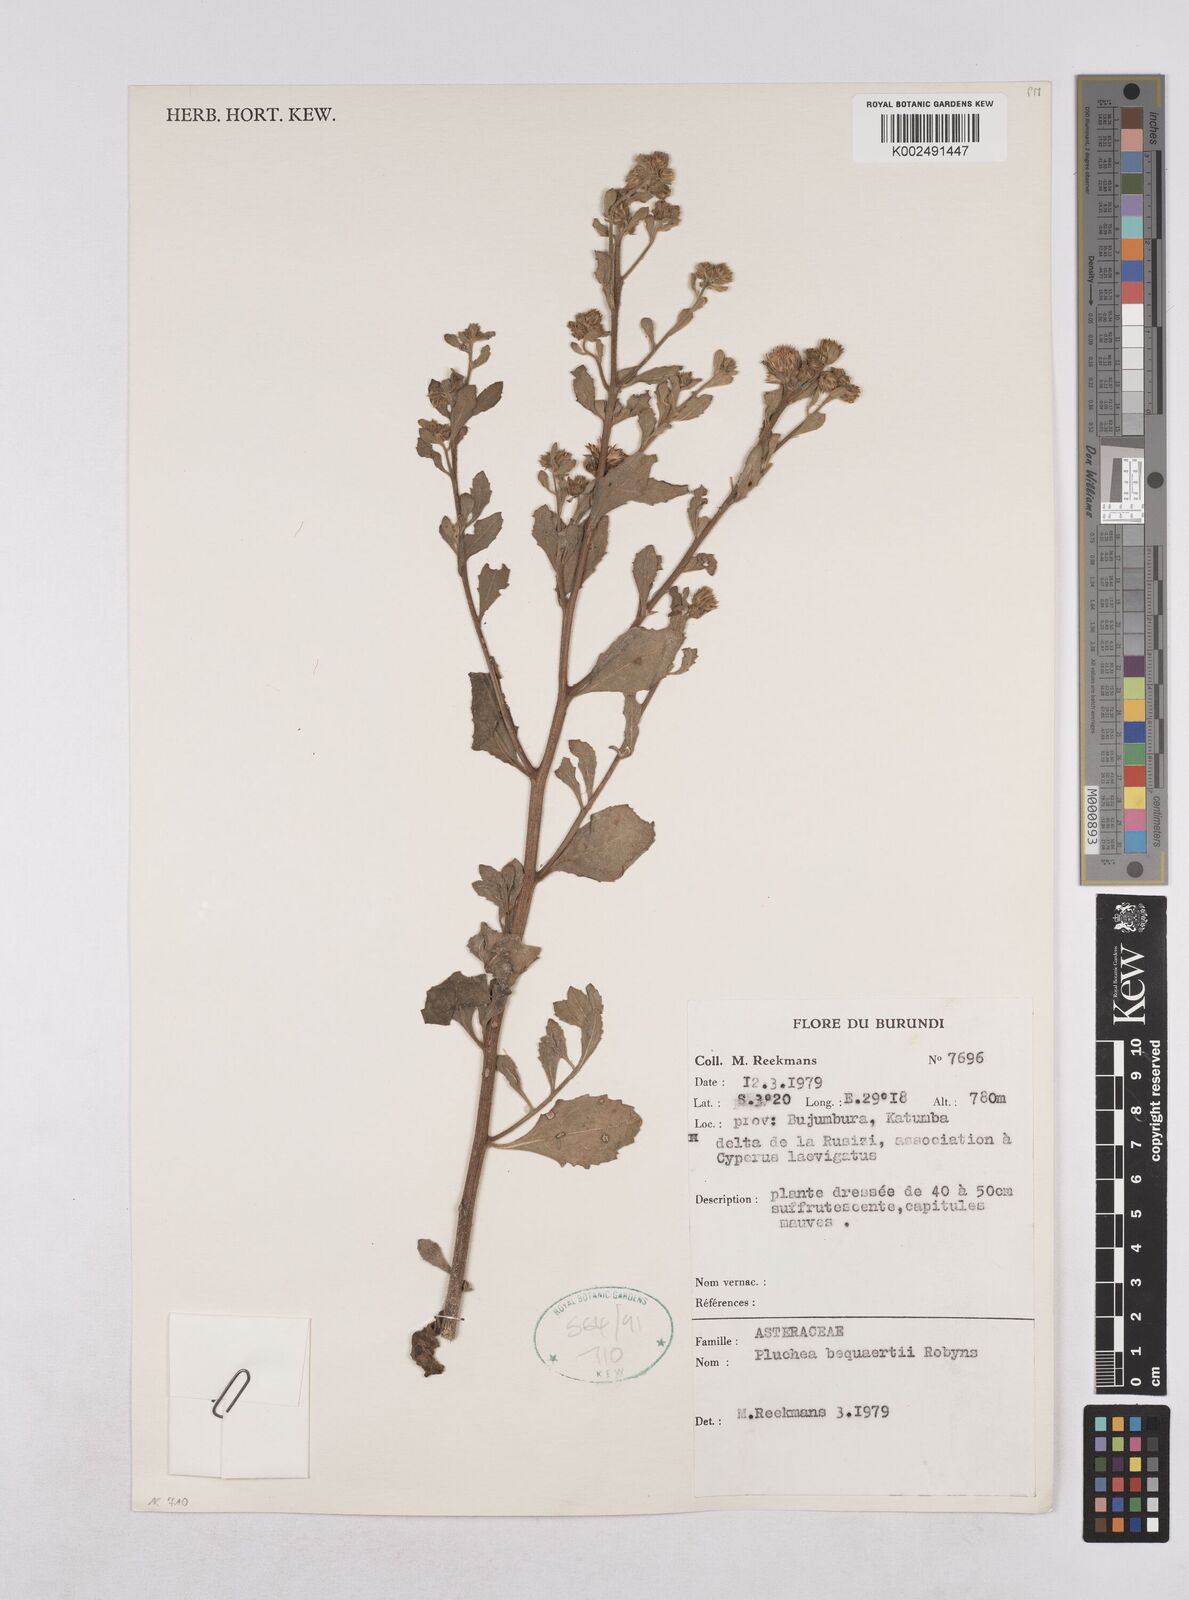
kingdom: Plantae
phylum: Tracheophyta
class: Magnoliopsida
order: Asterales
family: Asteraceae
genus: Pluchea
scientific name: Pluchea sordida
